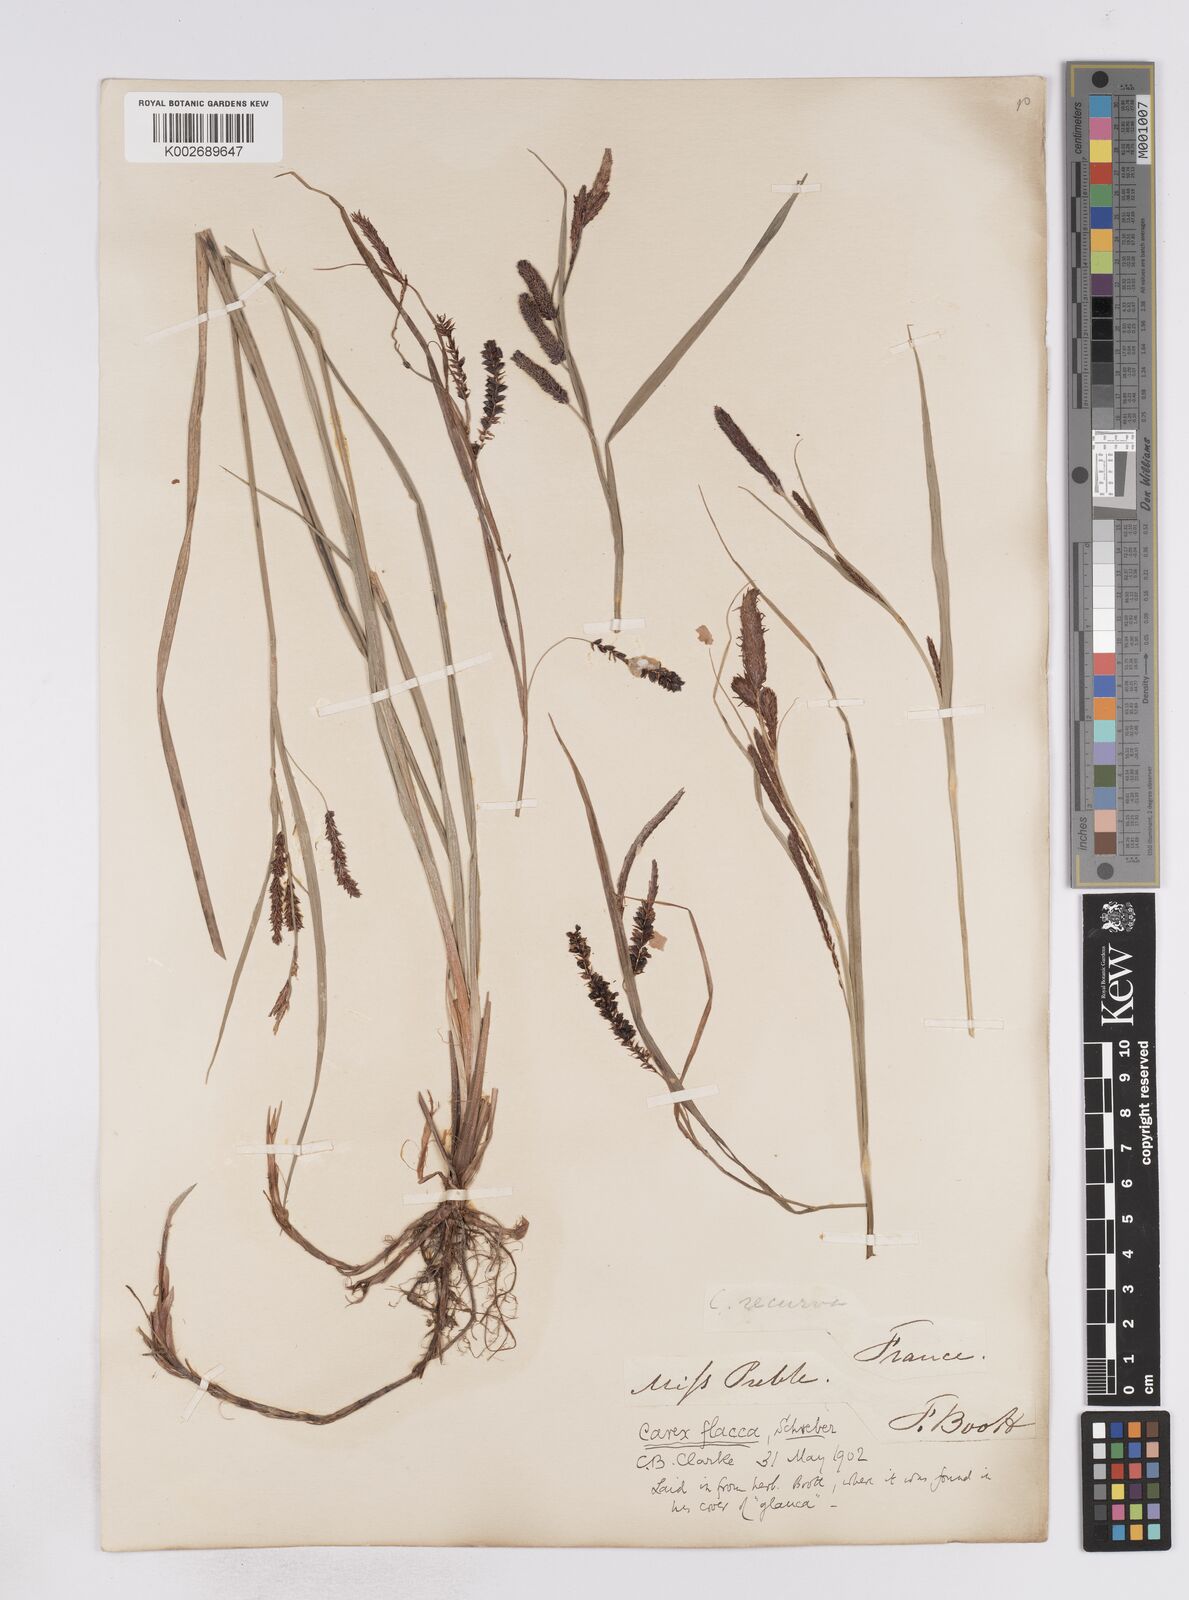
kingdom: Plantae
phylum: Tracheophyta
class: Liliopsida
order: Poales
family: Cyperaceae
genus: Carex
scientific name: Carex flacca
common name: Glaucous sedge
